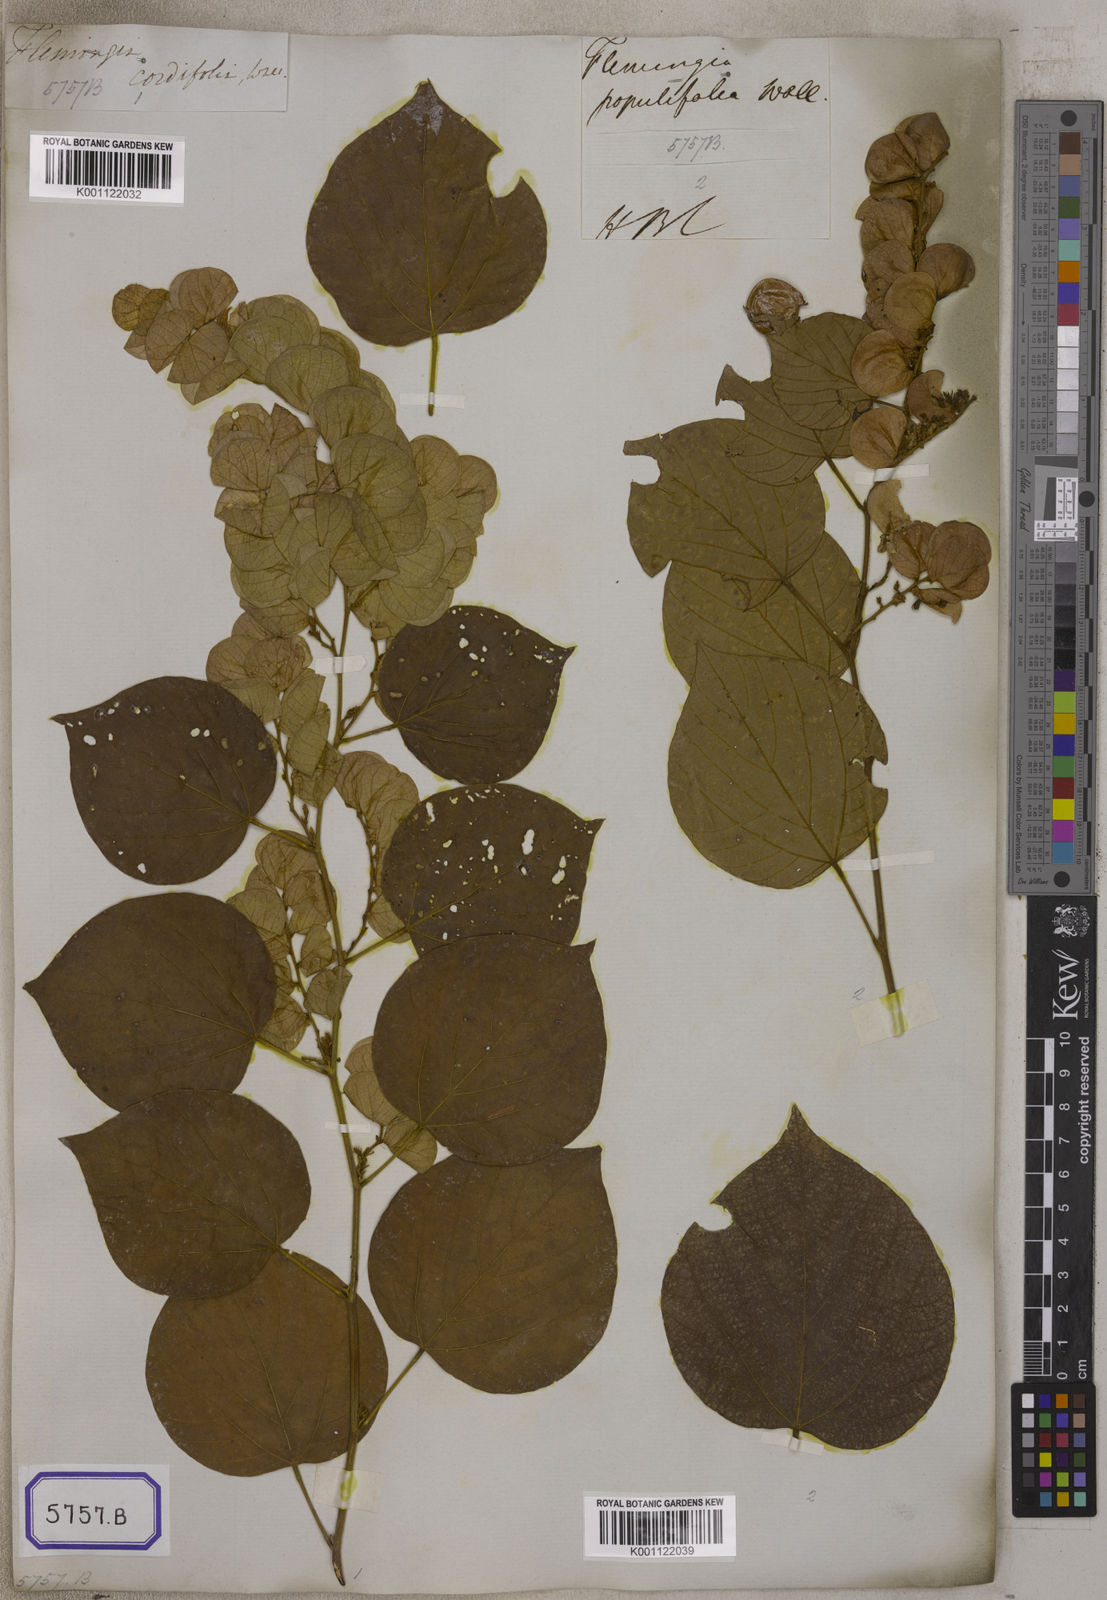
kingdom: Plantae
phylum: Tracheophyta
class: Magnoliopsida
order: Fabales
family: Fabaceae
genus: Flemingia
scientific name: Flemingia
